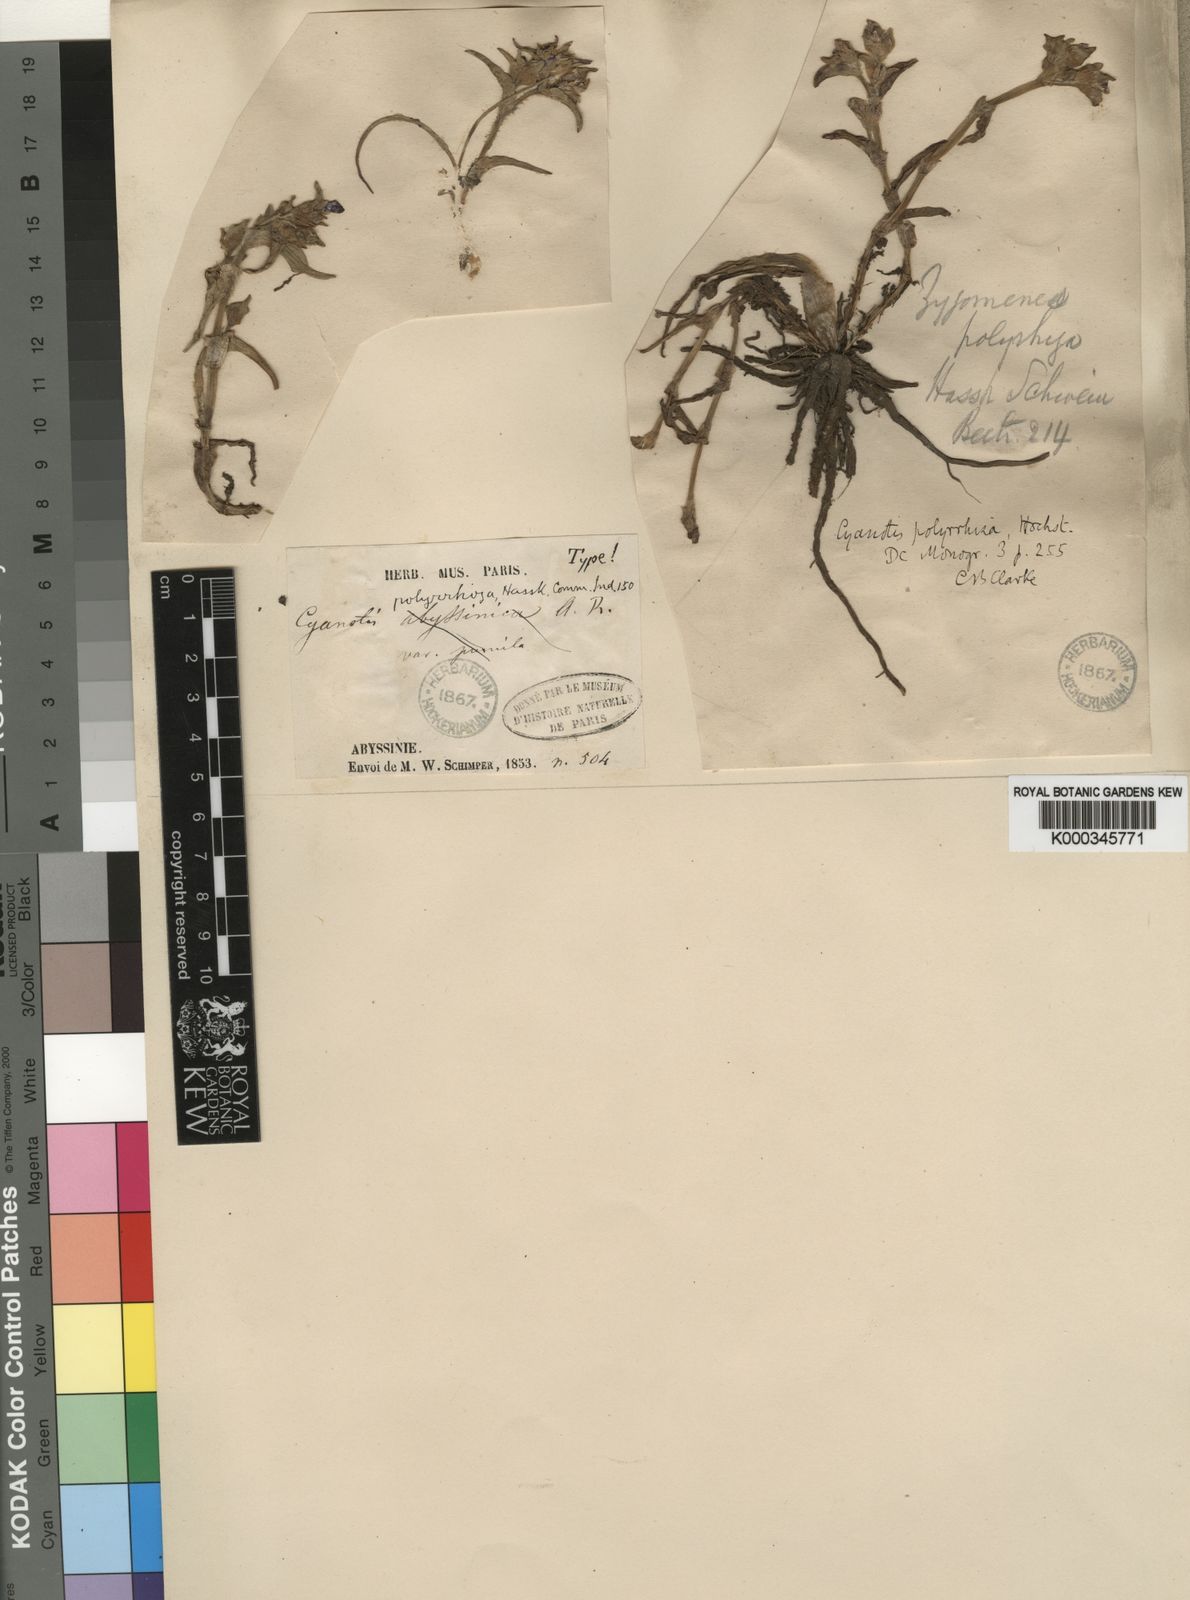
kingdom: Plantae
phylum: Tracheophyta
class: Liliopsida
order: Commelinales
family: Commelinaceae
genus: Cyanotis
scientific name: Cyanotis polyrrhiza
